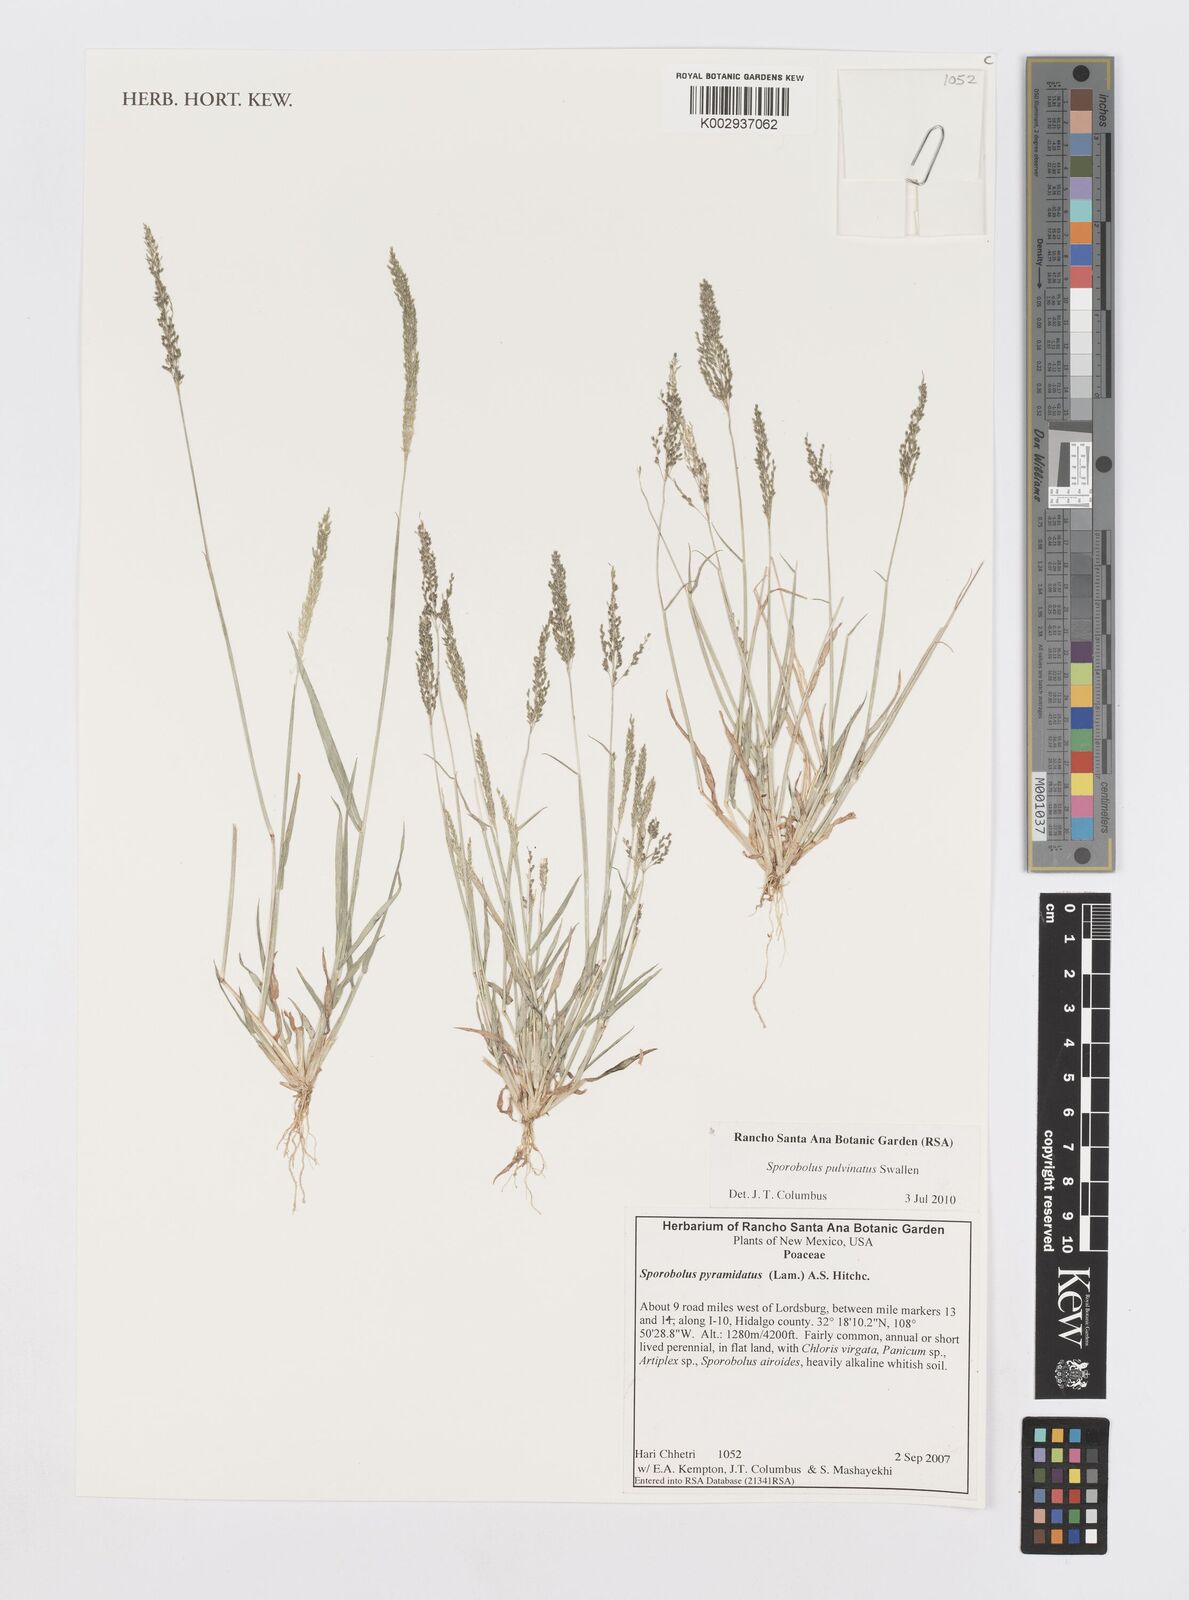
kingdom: Plantae
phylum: Tracheophyta
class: Liliopsida
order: Poales
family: Poaceae
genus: Sporobolus
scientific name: Sporobolus pyramidatus
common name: Whorled dropseed
